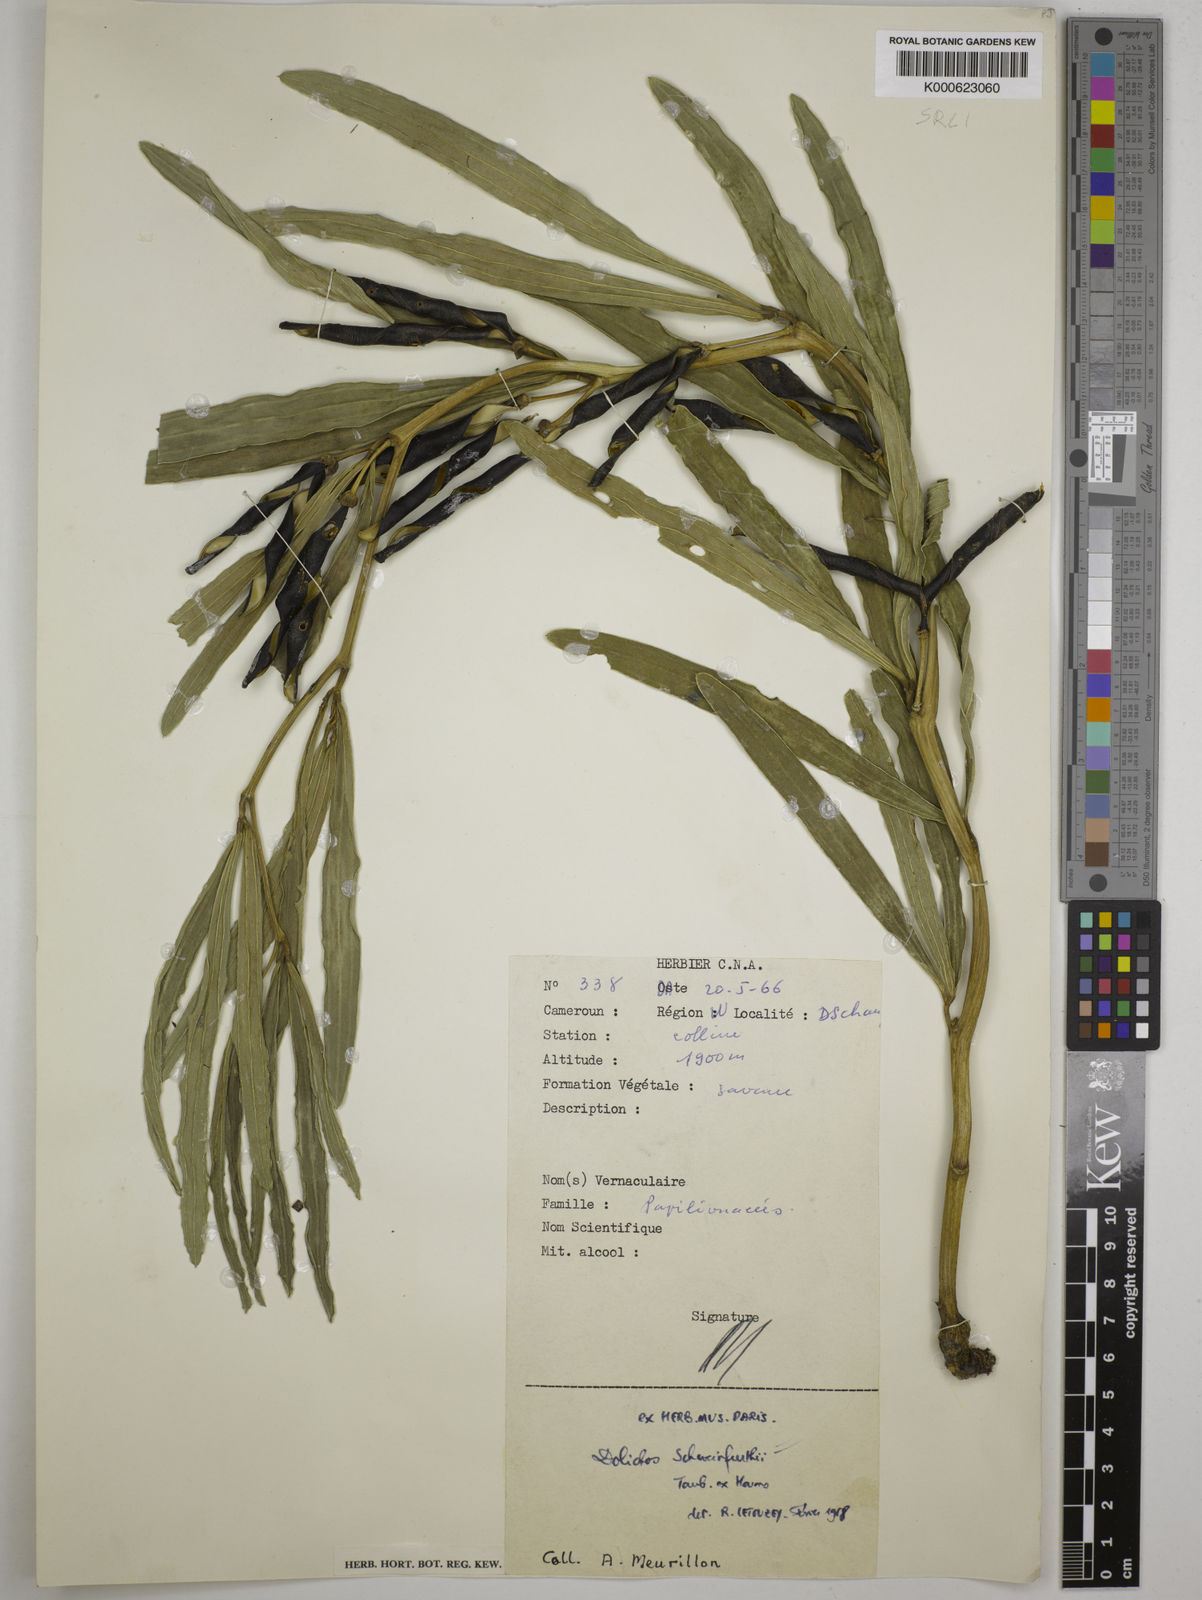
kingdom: Plantae
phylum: Tracheophyta
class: Magnoliopsida
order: Fabales
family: Fabaceae
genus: Dolichos
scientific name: Dolichos
